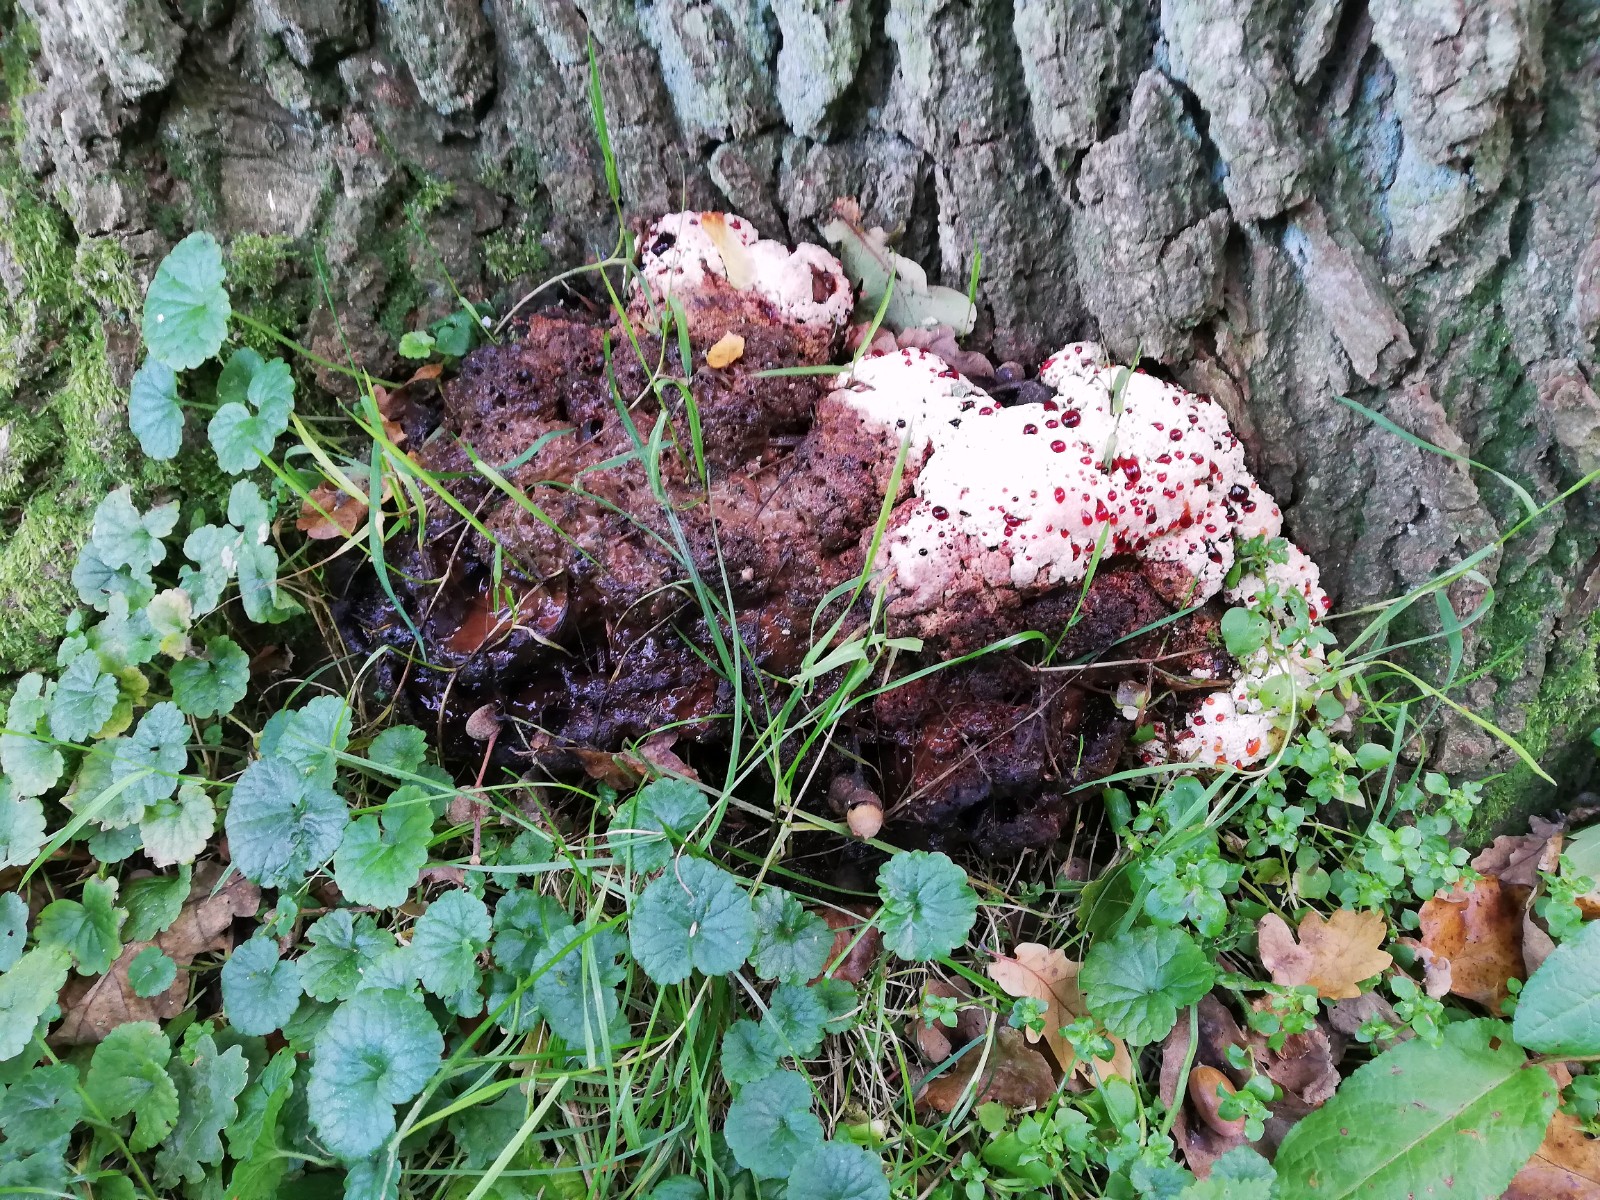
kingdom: Fungi
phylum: Basidiomycota
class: Agaricomycetes
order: Hymenochaetales
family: Hymenochaetaceae
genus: Pseudoinonotus
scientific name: Pseudoinonotus dryadeus
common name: ege-spejlporesvamp
